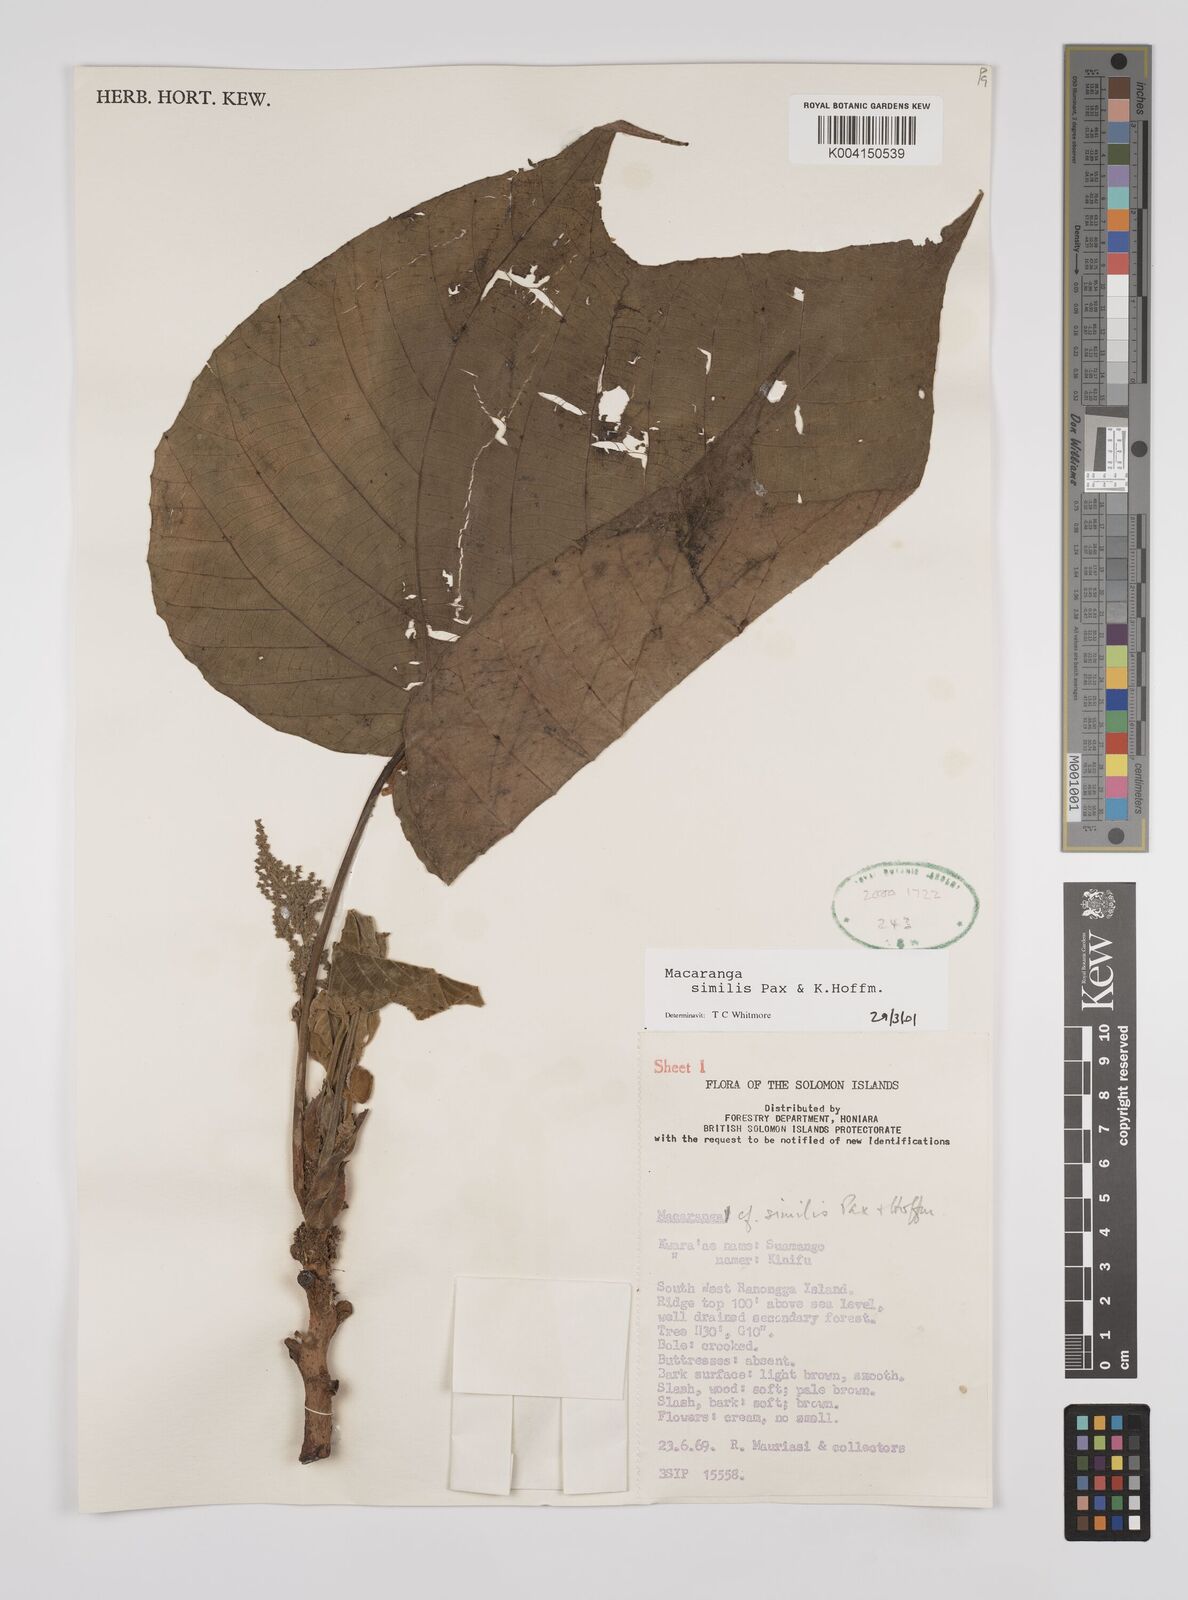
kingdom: Plantae
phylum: Tracheophyta
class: Magnoliopsida
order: Malpighiales
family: Euphorbiaceae
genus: Macaranga
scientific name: Macaranga similis
